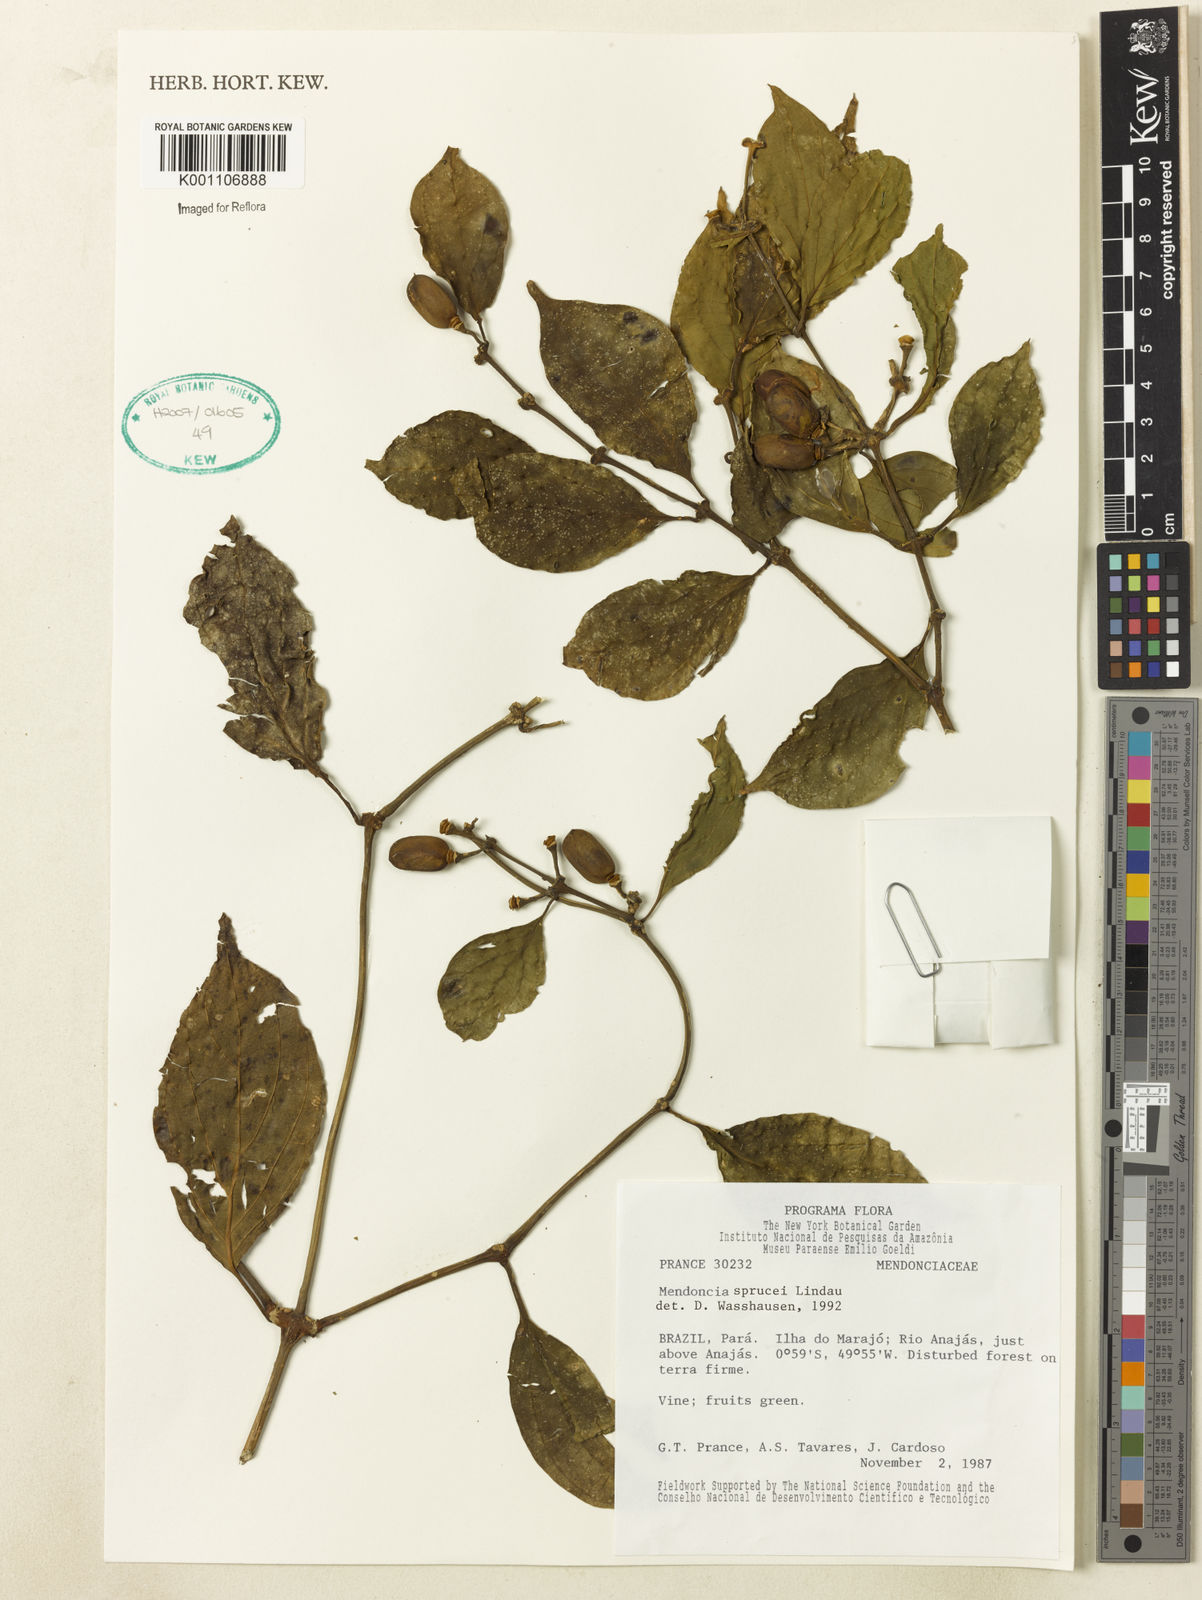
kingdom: Plantae
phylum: Tracheophyta
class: Magnoliopsida
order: Lamiales
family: Acanthaceae
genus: Mendoncia
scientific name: Mendoncia sprucei
